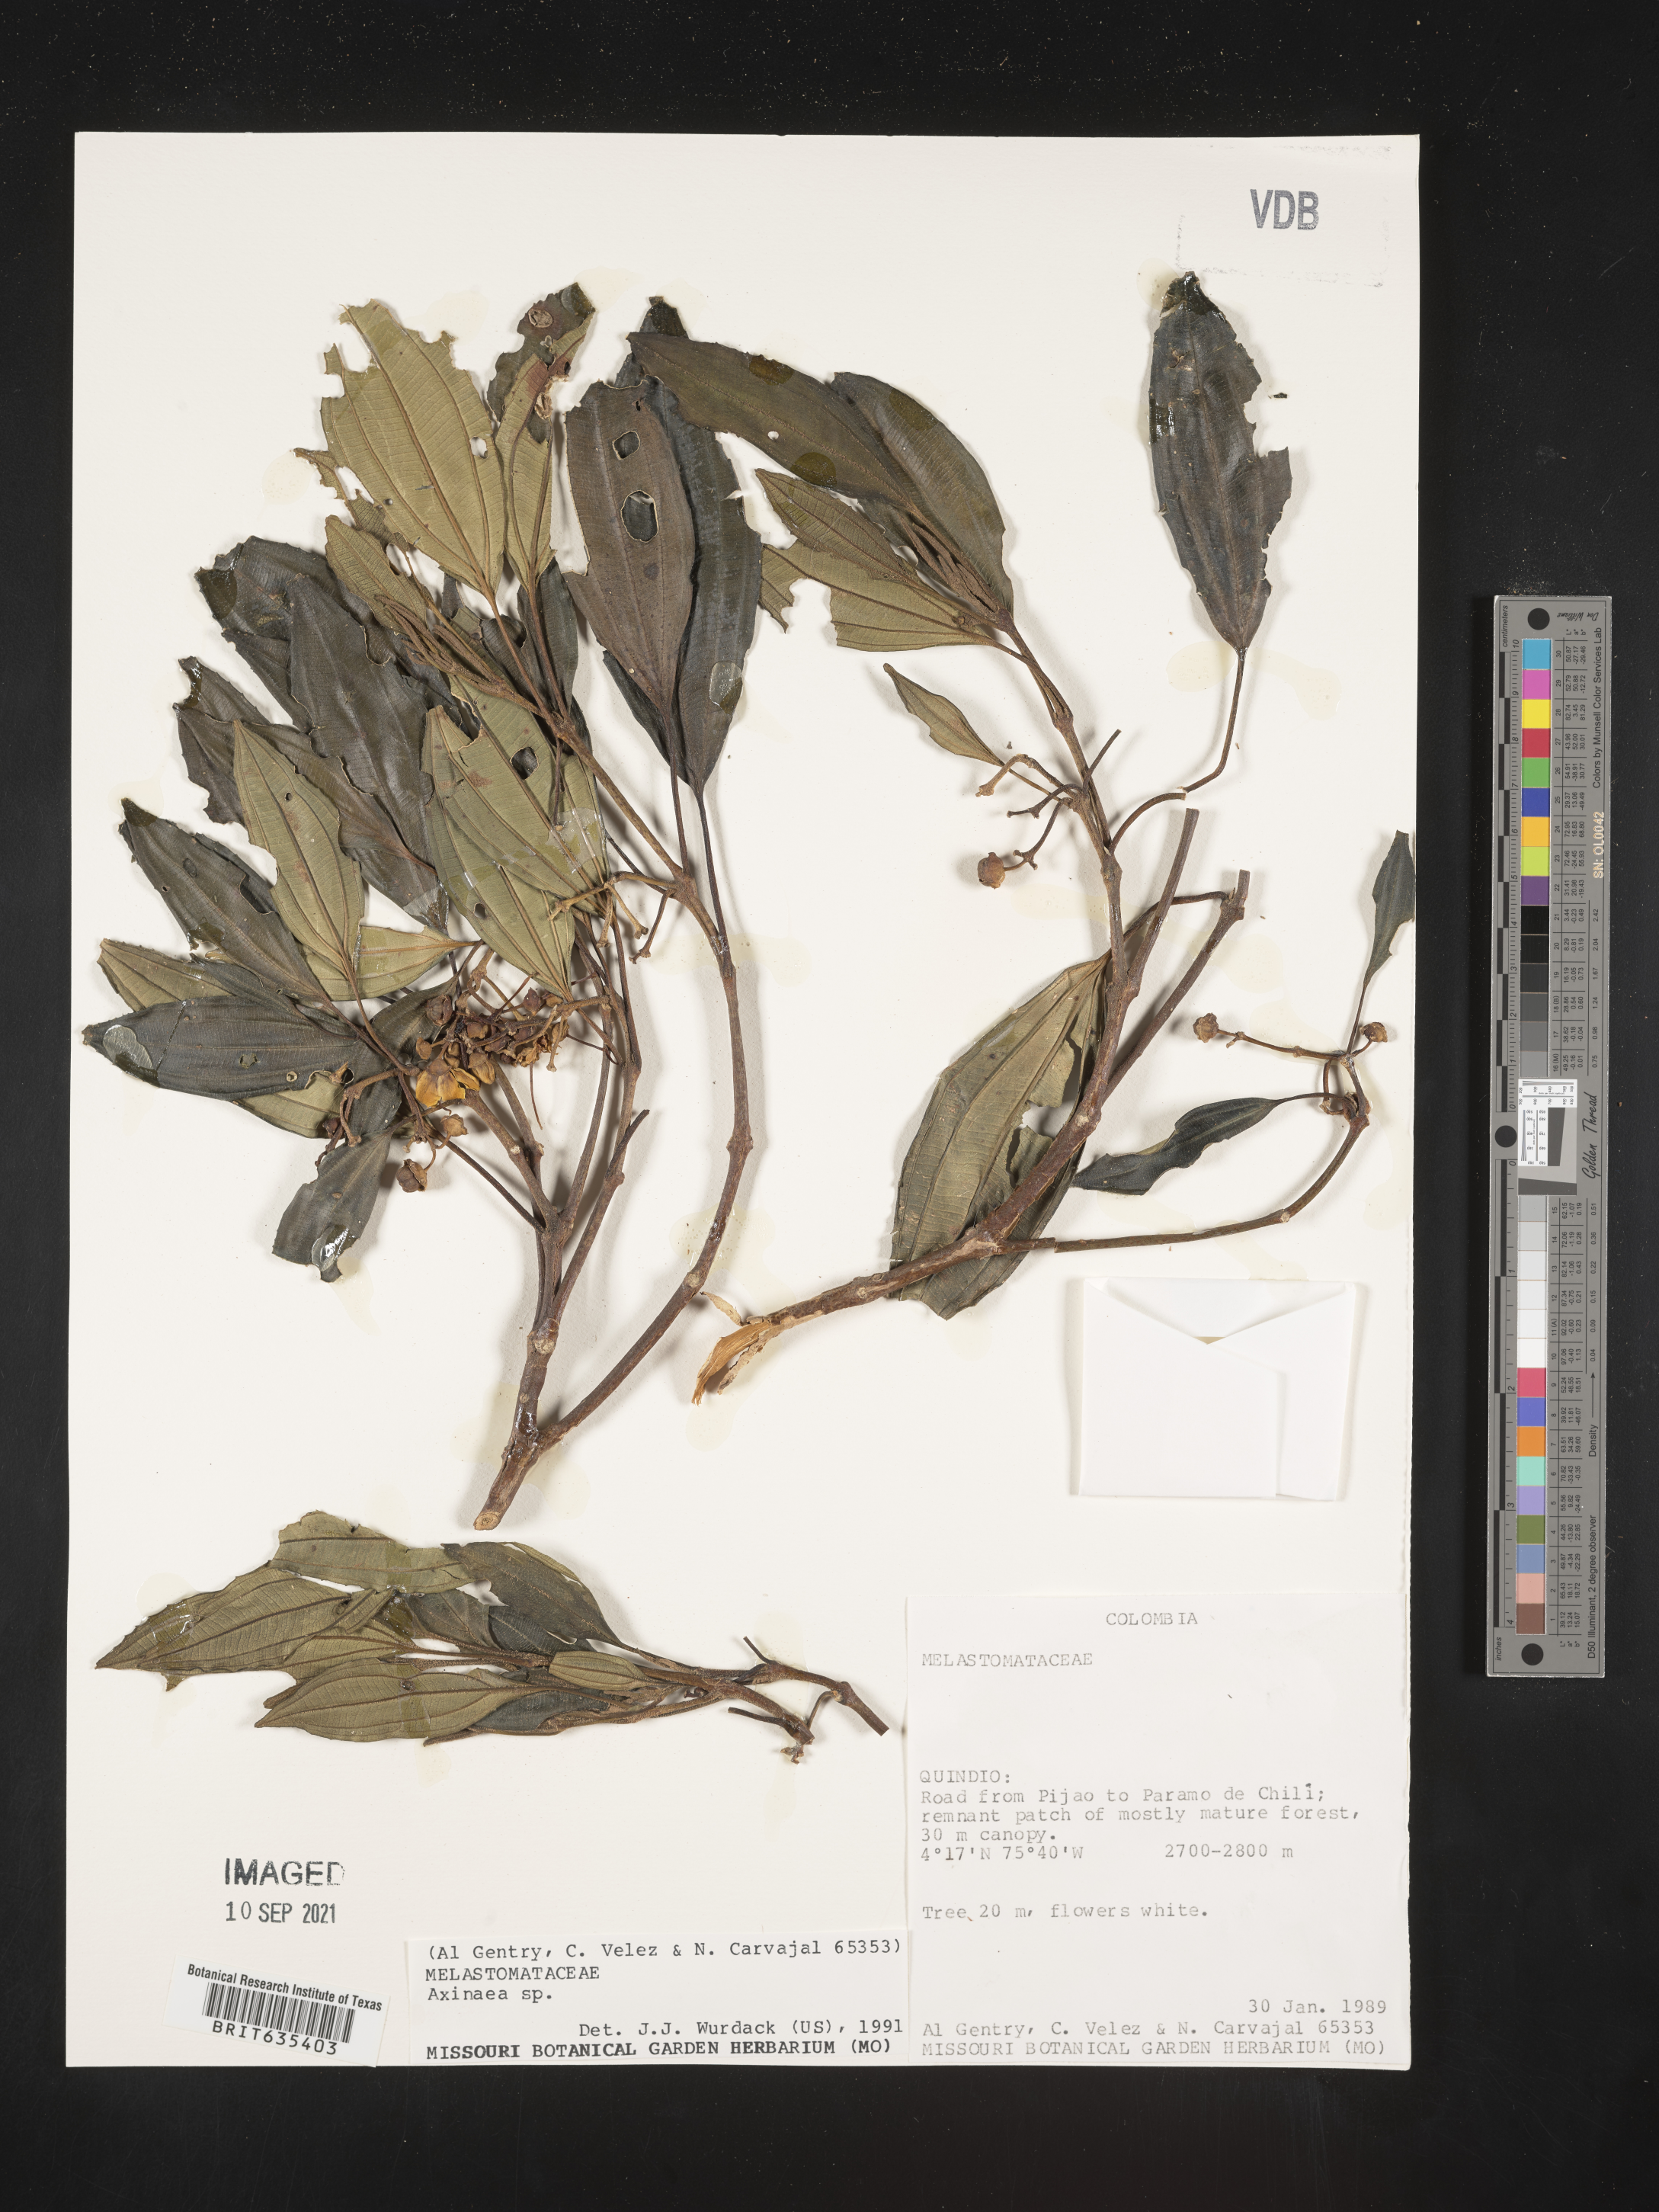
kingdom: Plantae
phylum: Tracheophyta
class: Magnoliopsida
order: Myrtales
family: Melastomataceae
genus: Axinaea
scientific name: Axinaea
